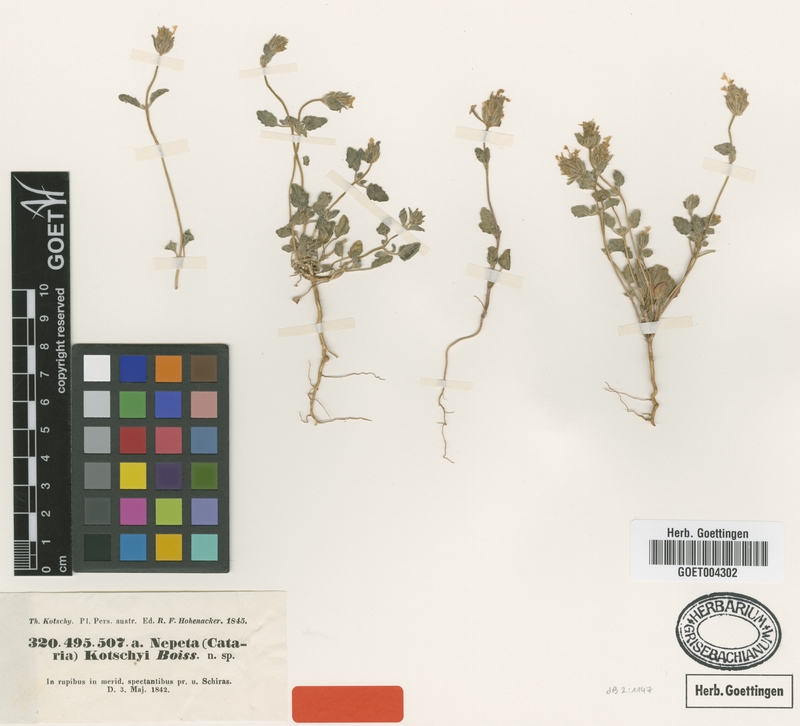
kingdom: Plantae
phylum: Tracheophyta
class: Magnoliopsida
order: Lamiales
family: Lamiaceae
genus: Nepeta
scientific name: Nepeta kotschyi
